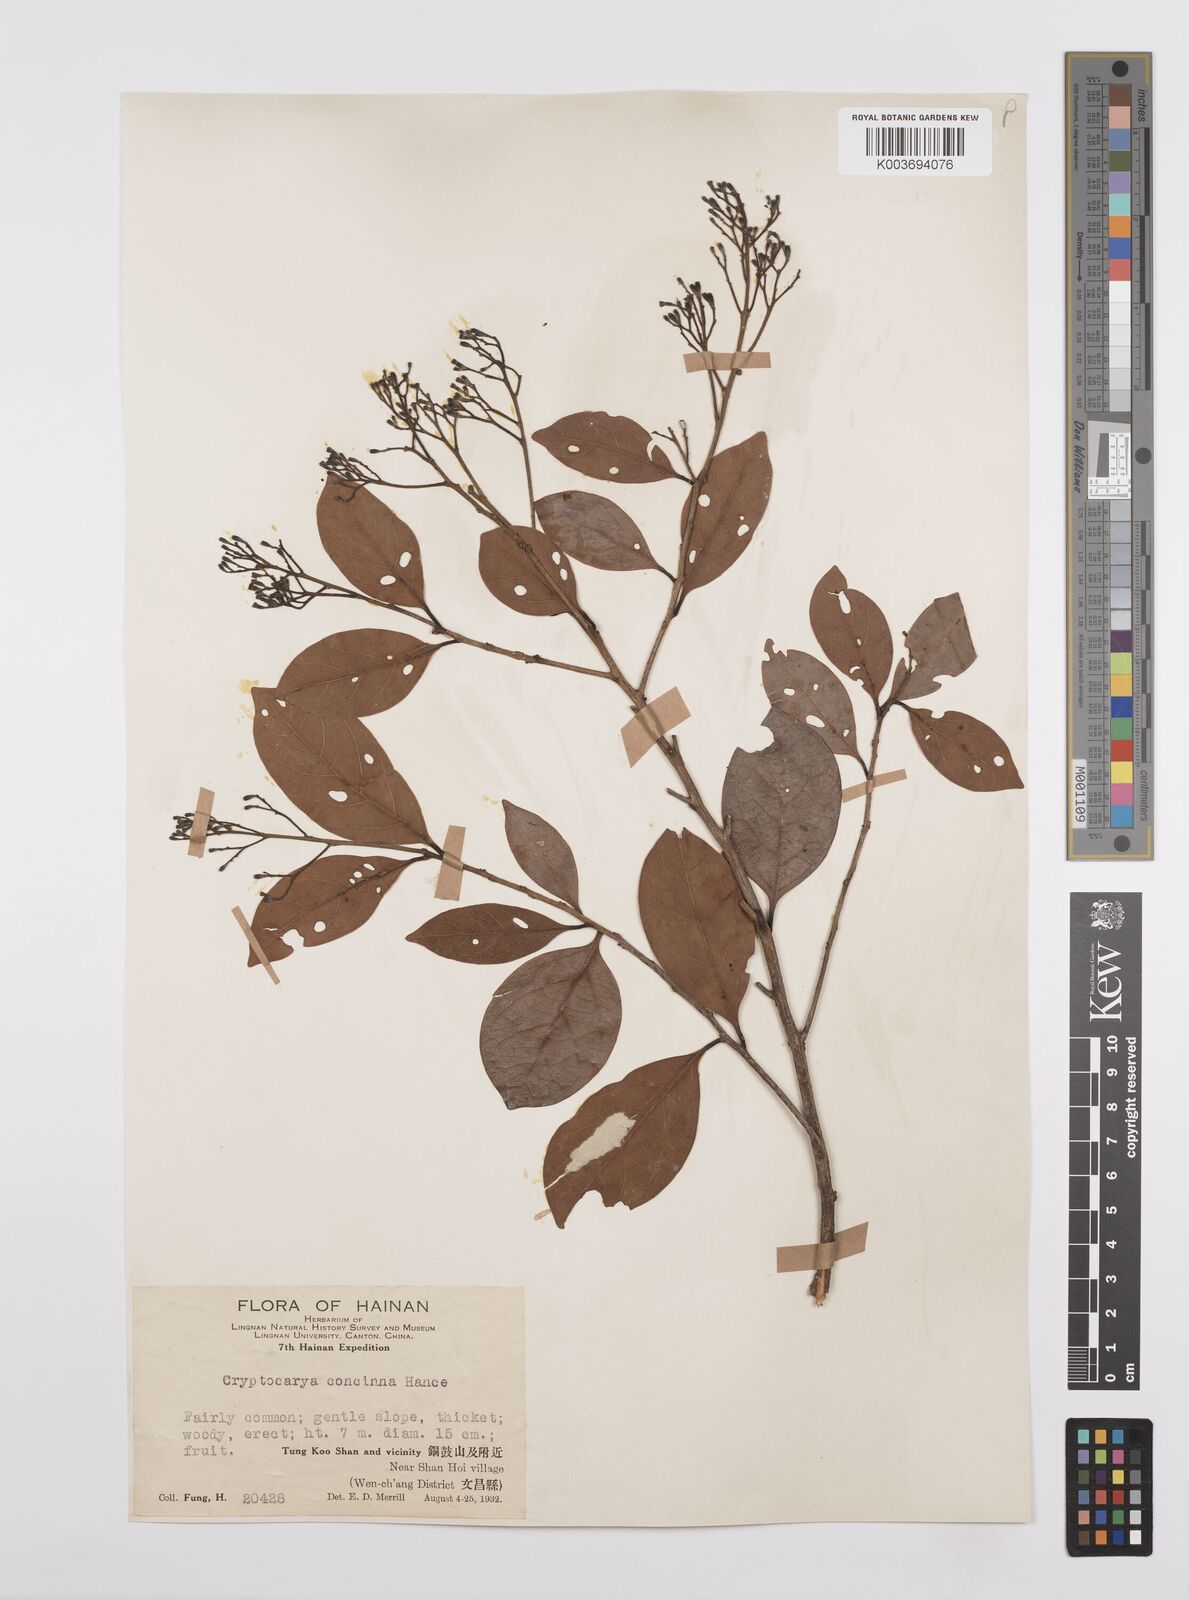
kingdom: Plantae
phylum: Tracheophyta
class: Magnoliopsida
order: Laurales
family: Lauraceae
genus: Cryptocarya
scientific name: Cryptocarya concinna
